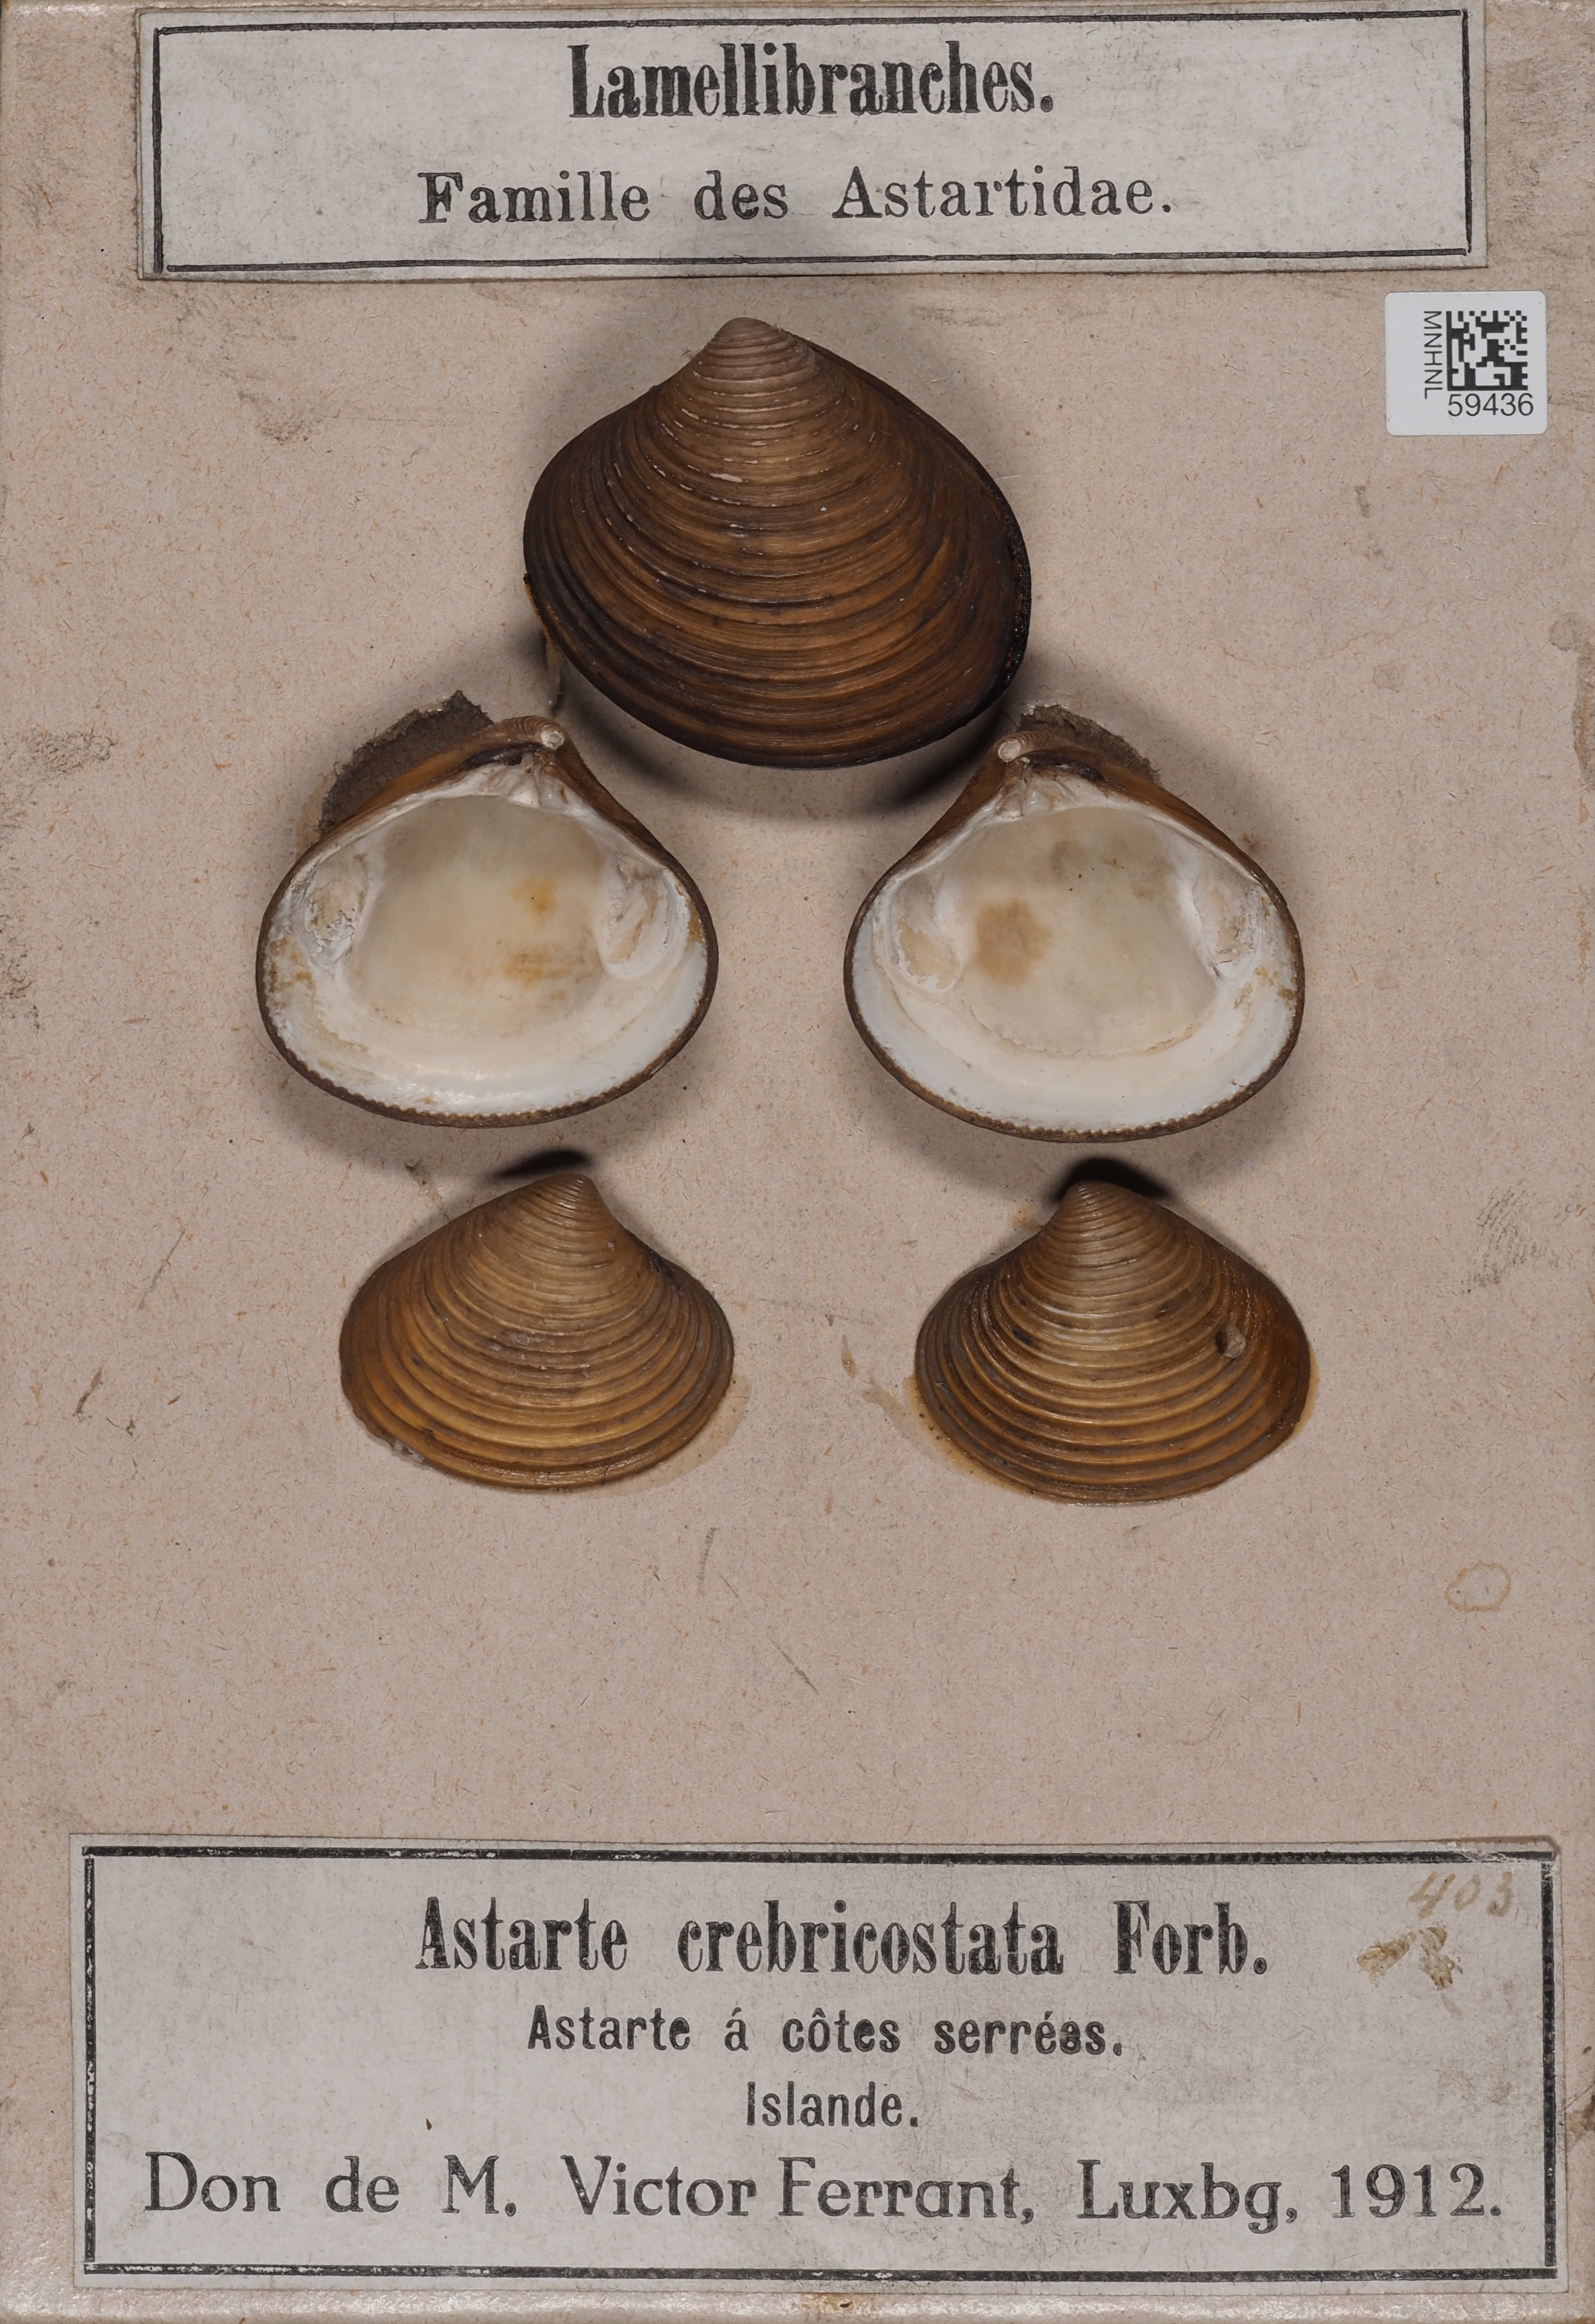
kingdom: Animalia
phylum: Mollusca
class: Bivalvia
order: Carditida
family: Astartidae
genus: Astarte
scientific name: Astarte crebricostata
